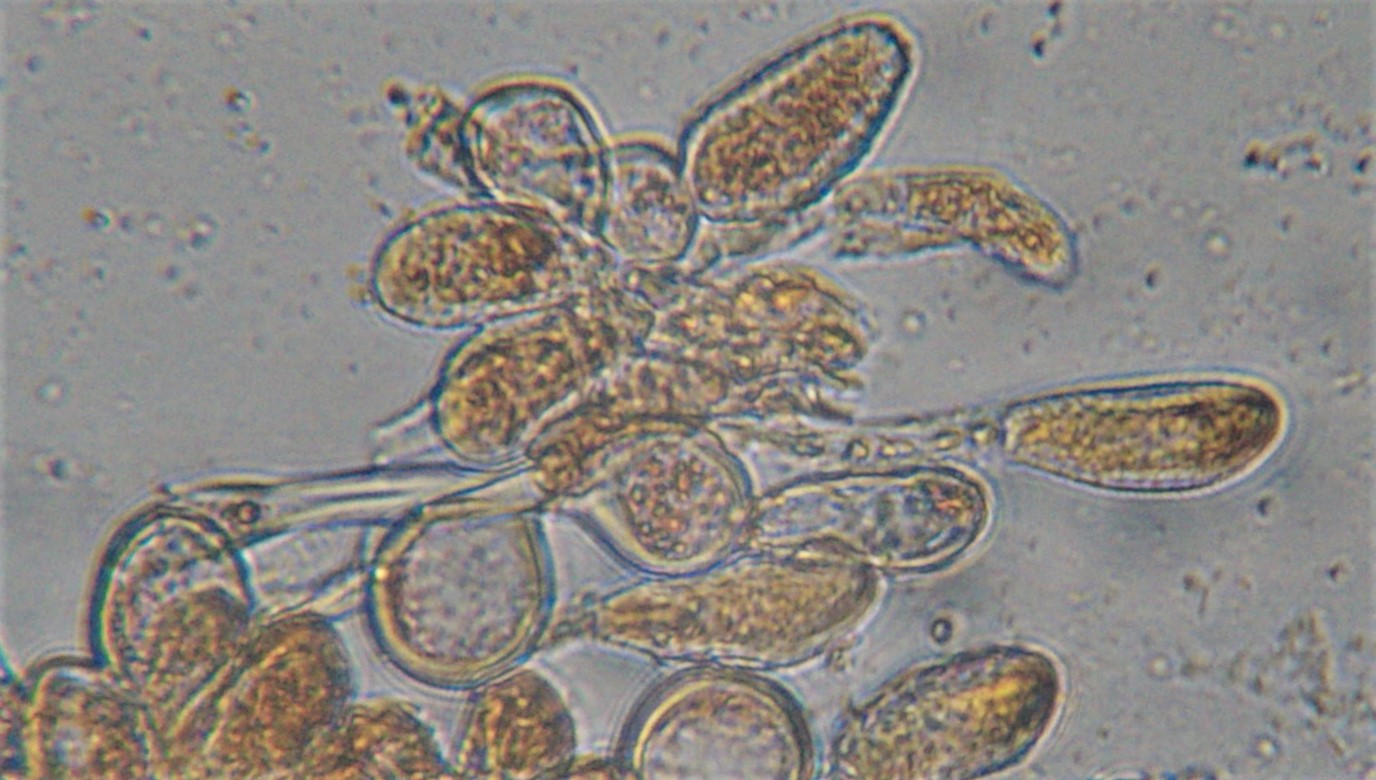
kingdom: Fungi
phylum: Basidiomycota
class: Pucciniomycetes
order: Pucciniales
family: Melampsoraceae
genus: Melampsora
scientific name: Melampsora epitea
